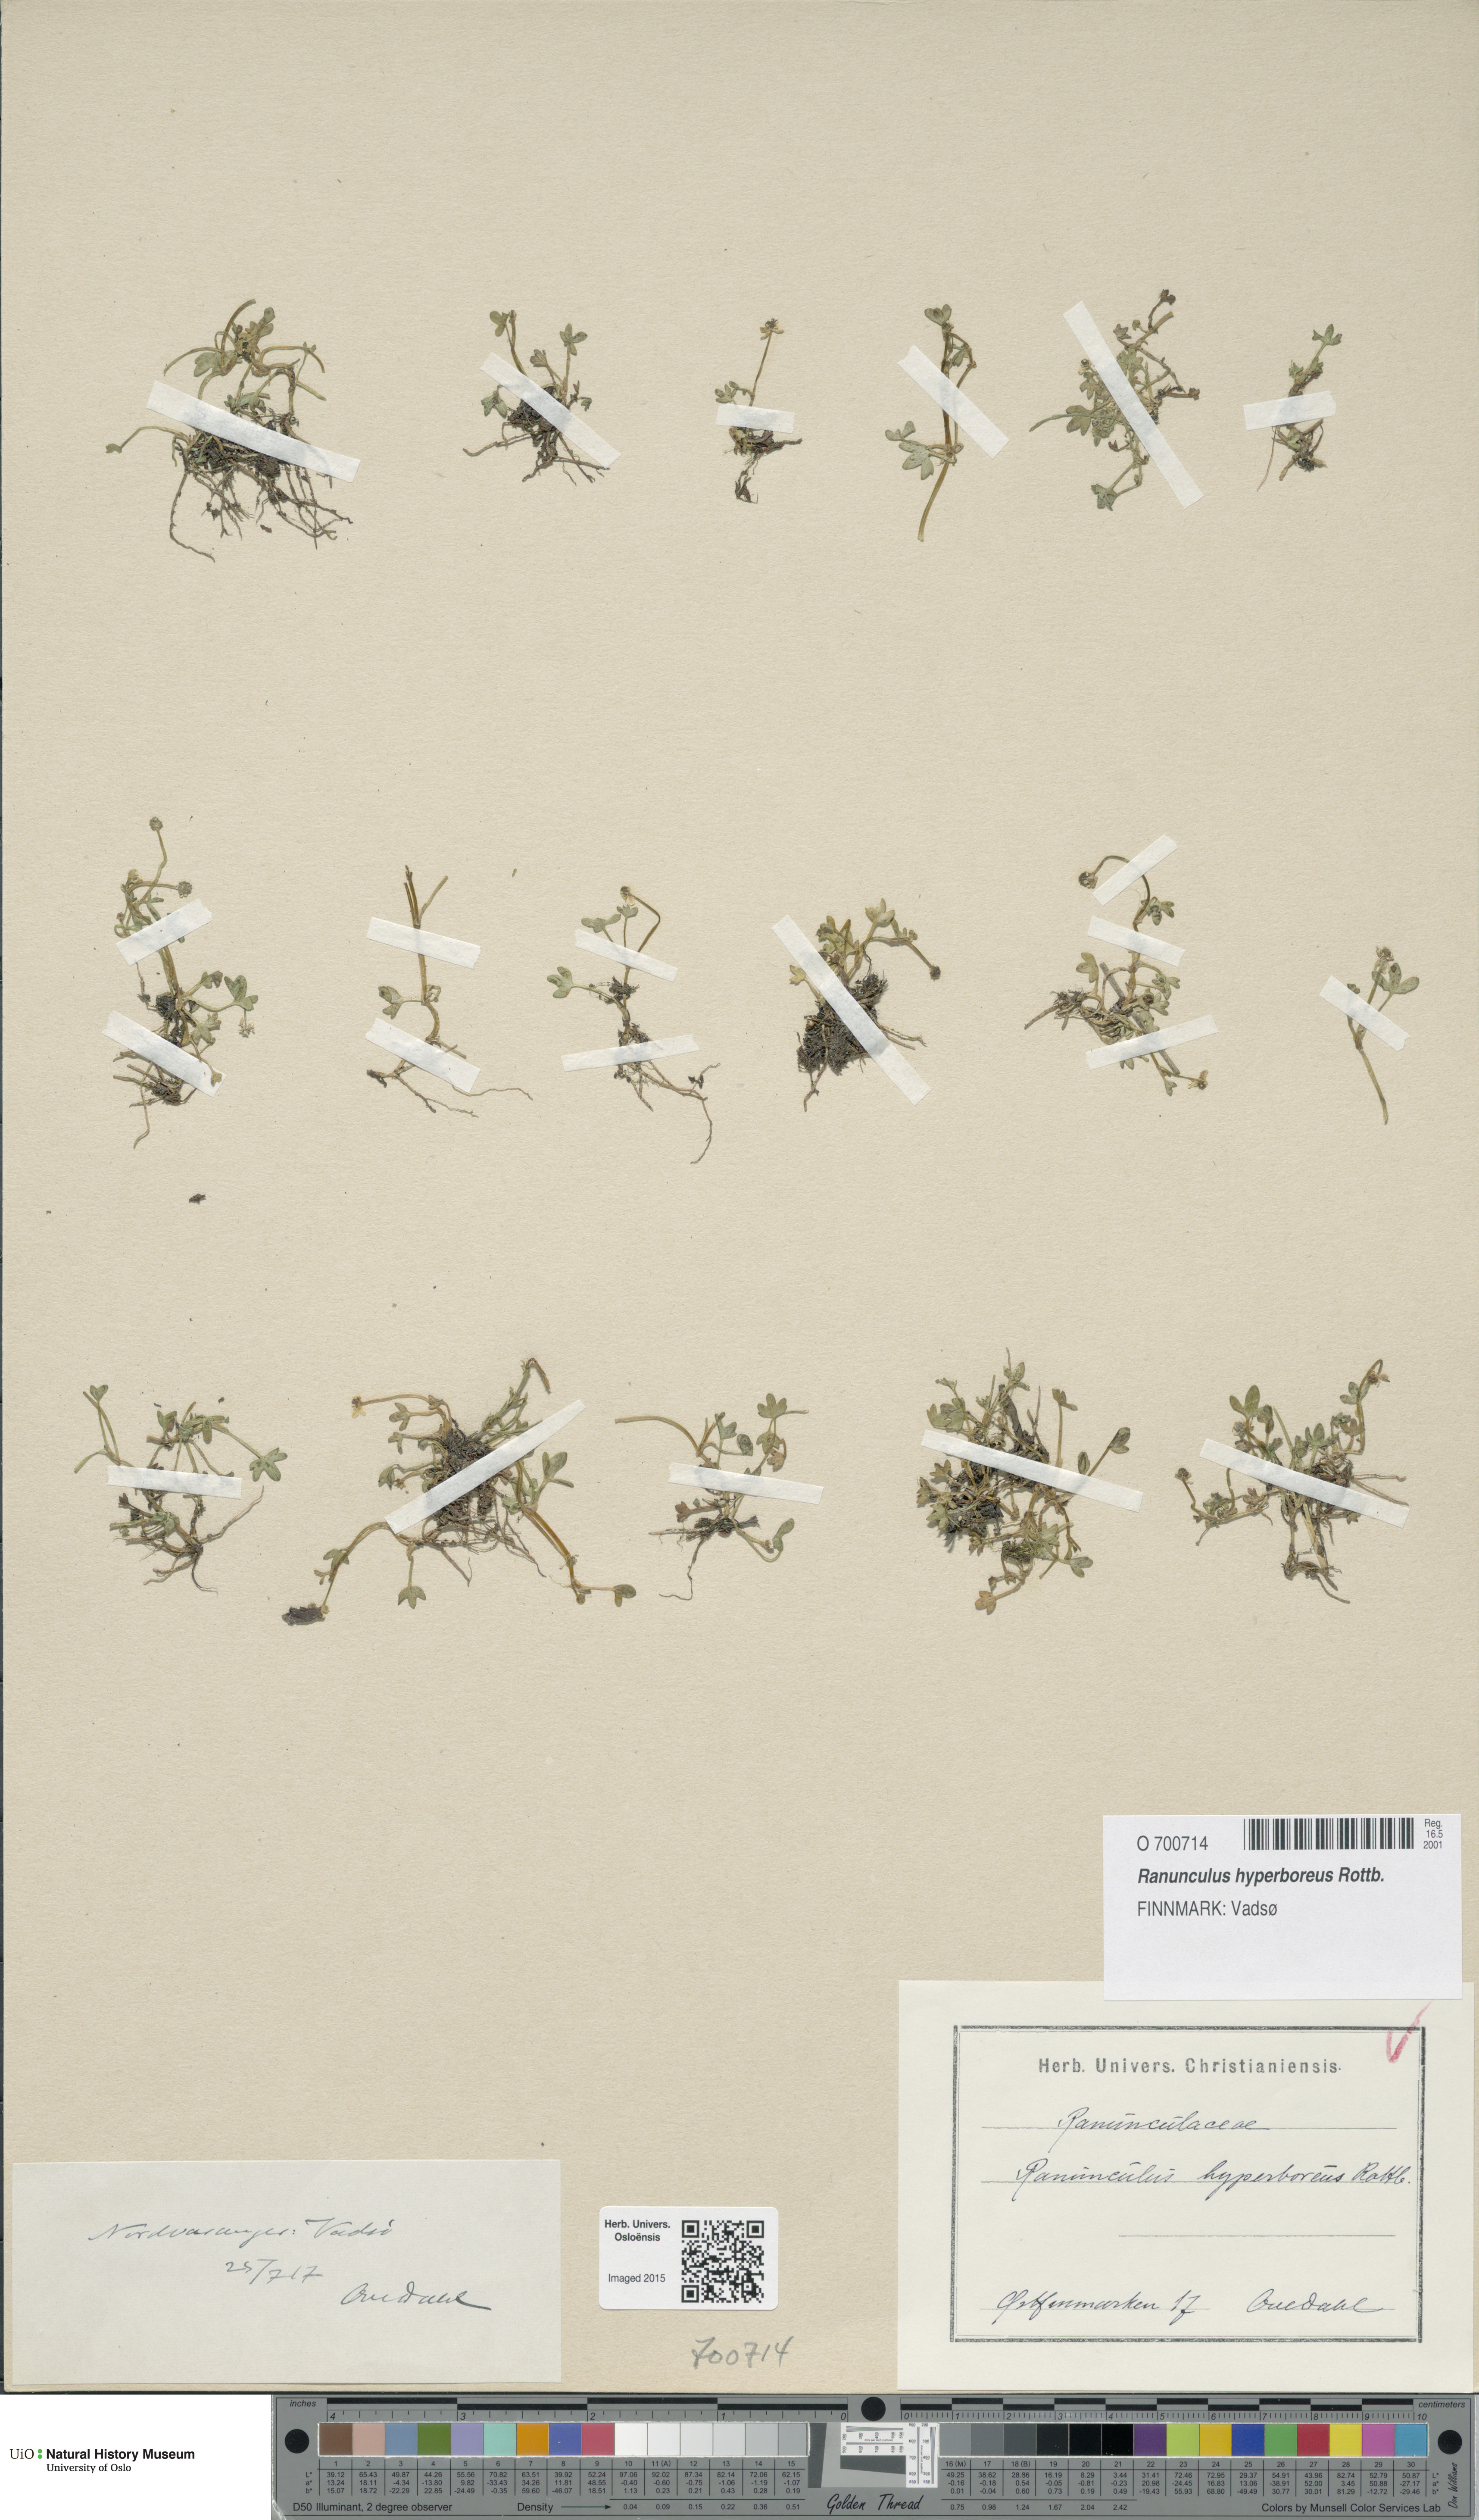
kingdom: Plantae
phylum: Tracheophyta
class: Magnoliopsida
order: Ranunculales
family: Ranunculaceae
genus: Ranunculus
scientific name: Ranunculus hyperboreus
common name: Arctic buttercup
